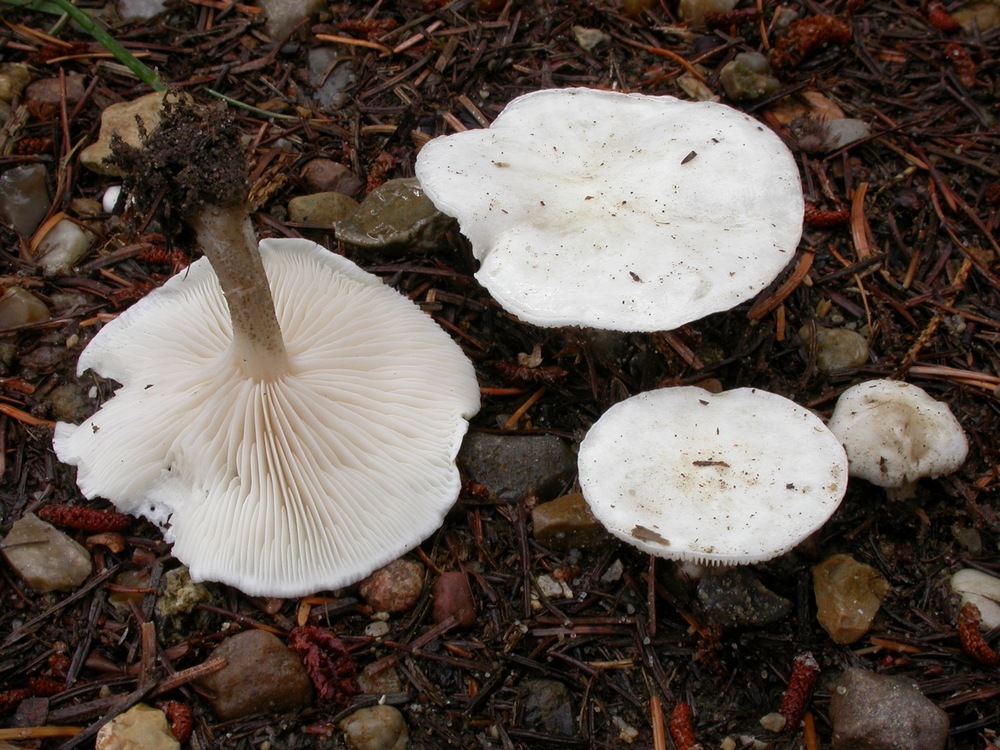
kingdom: Fungi
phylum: Basidiomycota
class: Agaricomycetes
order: Agaricales
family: Tricholomataceae
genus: Melanoleuca
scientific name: Melanoleuca verrucipes
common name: rufodet munkehat
